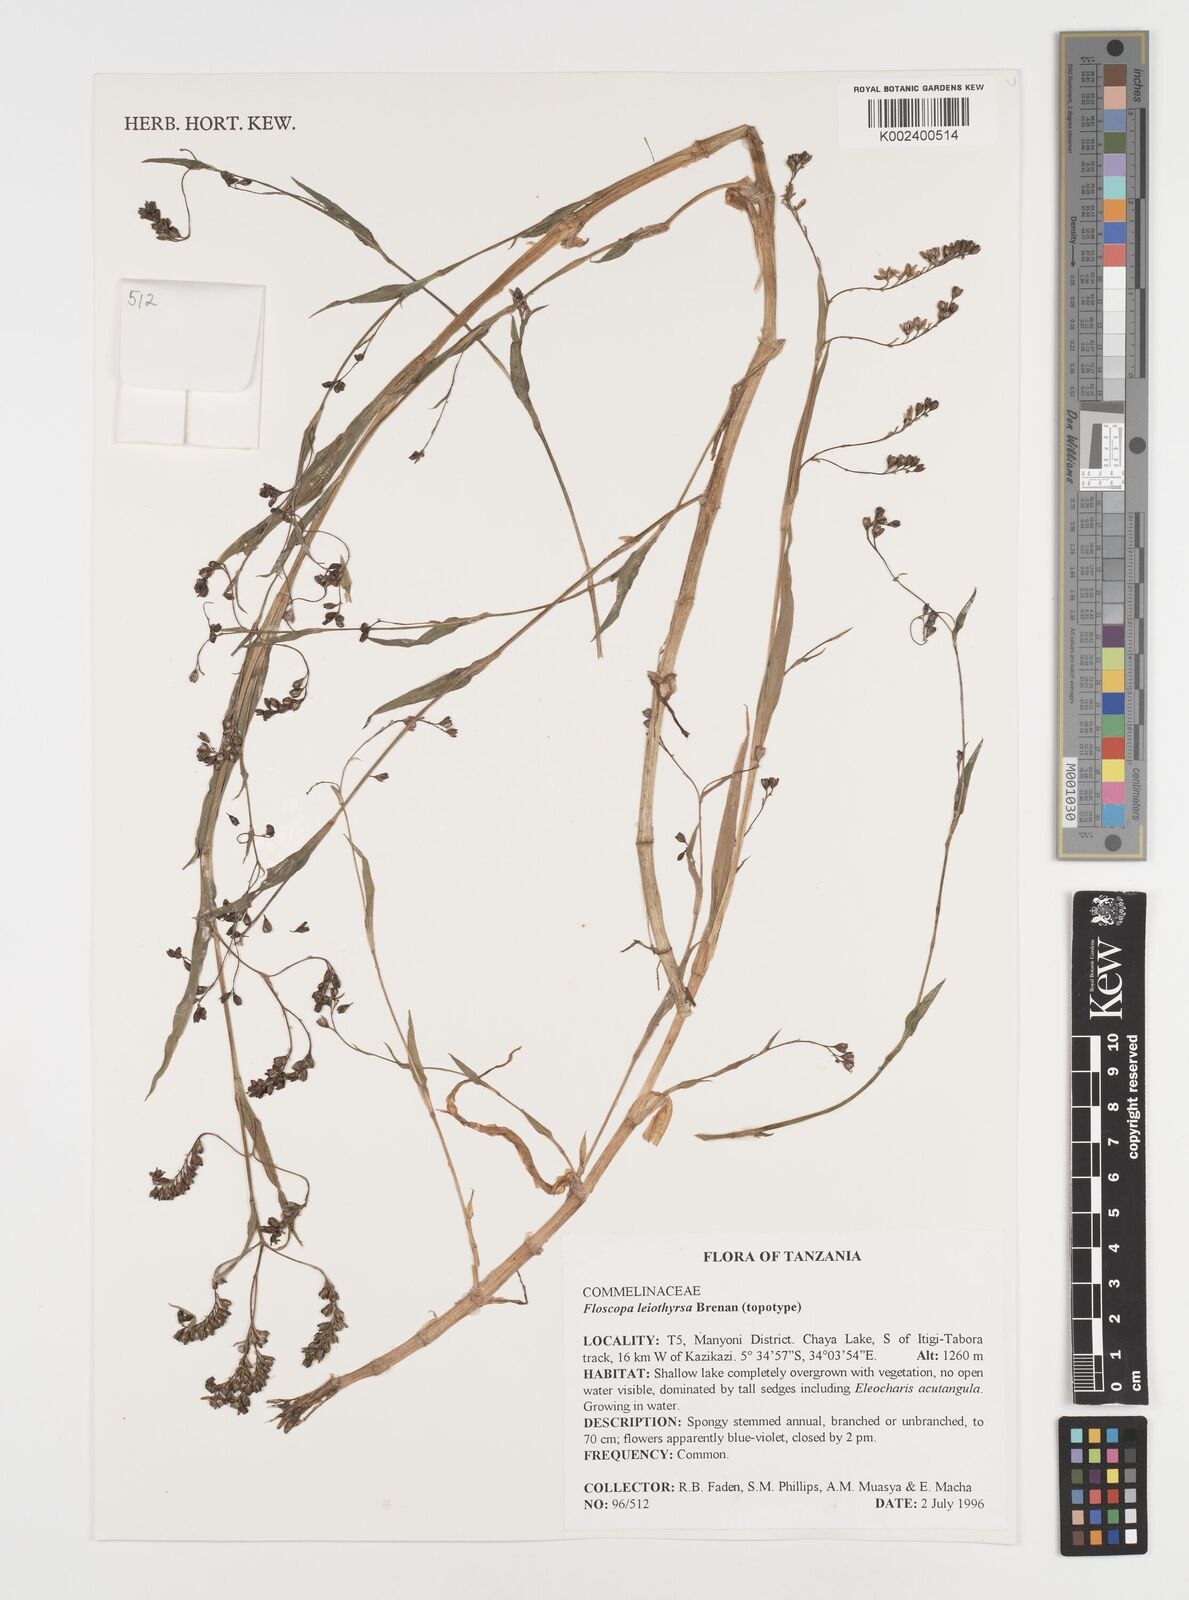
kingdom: Plantae
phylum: Tracheophyta
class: Liliopsida
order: Commelinales
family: Commelinaceae
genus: Floscopa
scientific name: Floscopa leiothyrsa
